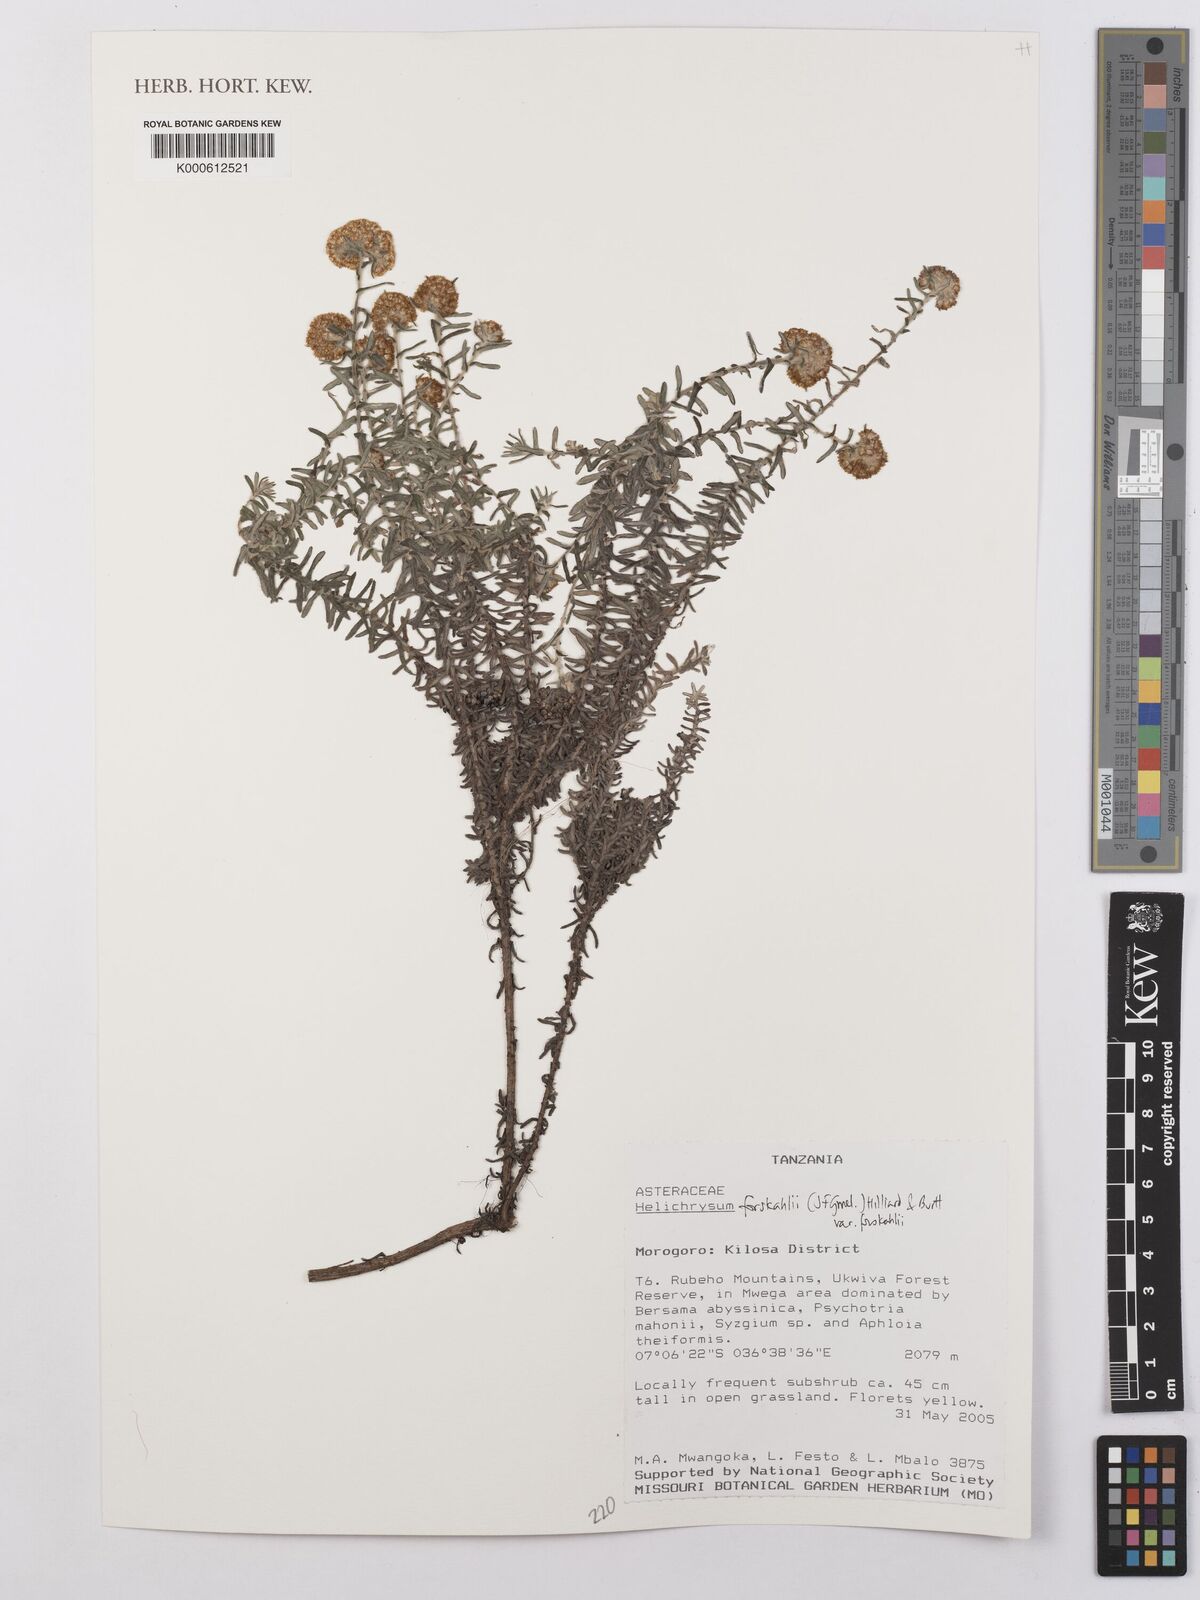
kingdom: Plantae
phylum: Tracheophyta
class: Magnoliopsida
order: Asterales
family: Asteraceae
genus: Helichrysum
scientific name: Helichrysum
